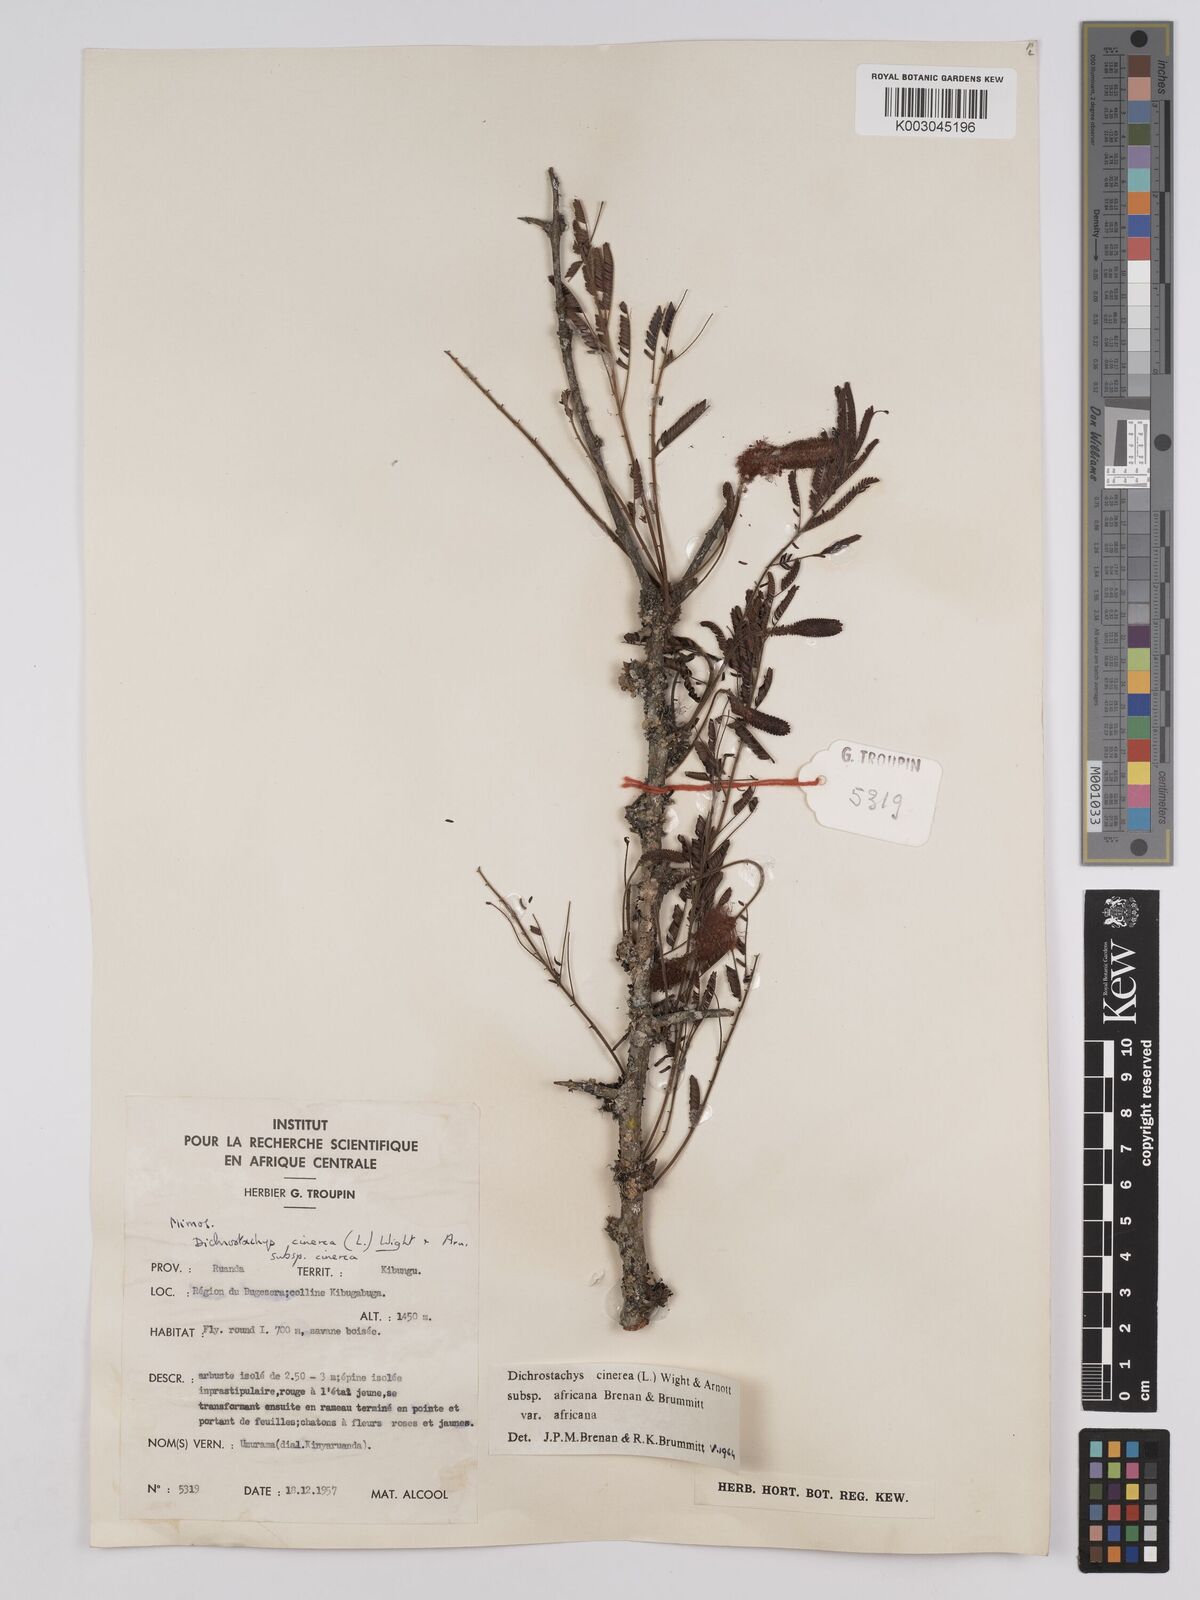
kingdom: Plantae
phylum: Tracheophyta
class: Magnoliopsida
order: Fabales
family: Fabaceae
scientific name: Fabaceae
